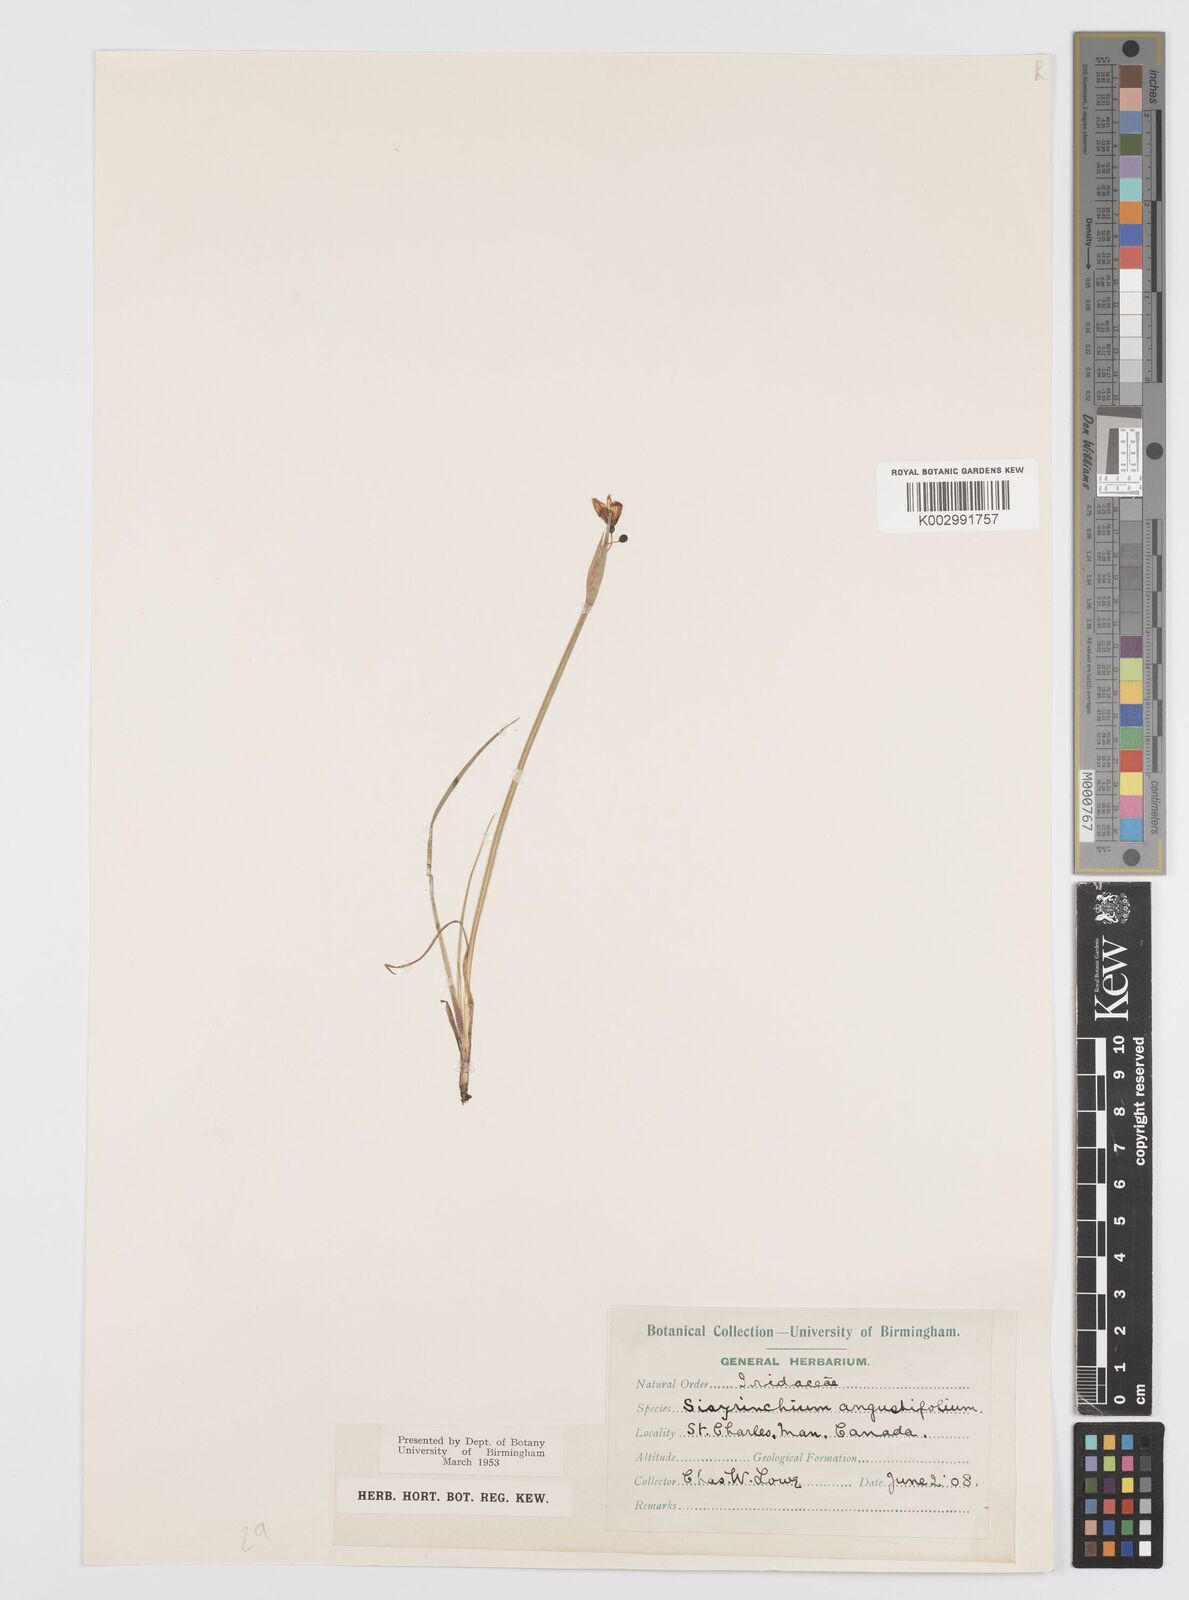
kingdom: Plantae
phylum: Tracheophyta
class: Liliopsida
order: Asparagales
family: Iridaceae
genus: Sisyrinchium
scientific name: Sisyrinchium bermudiana
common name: Blue-eyed-grass
